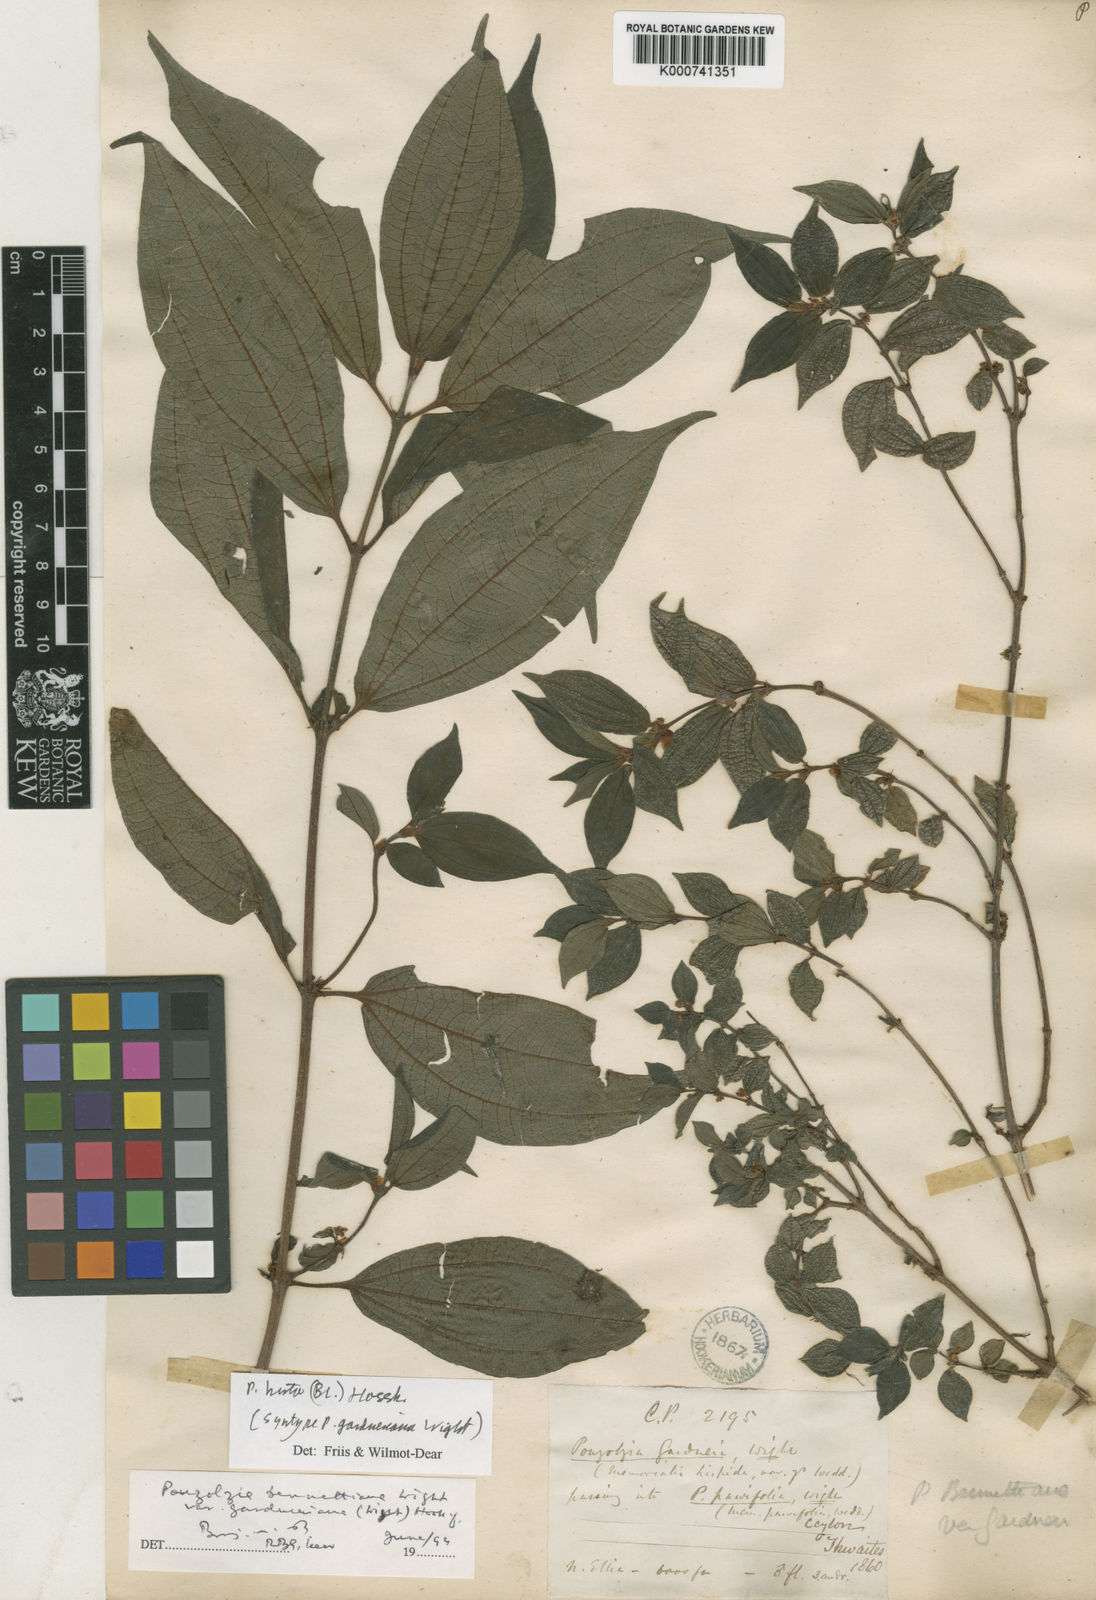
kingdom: Plantae
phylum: Tracheophyta
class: Magnoliopsida
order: Rosales
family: Urticaceae
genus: Gonostegia
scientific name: Gonostegia triandra
